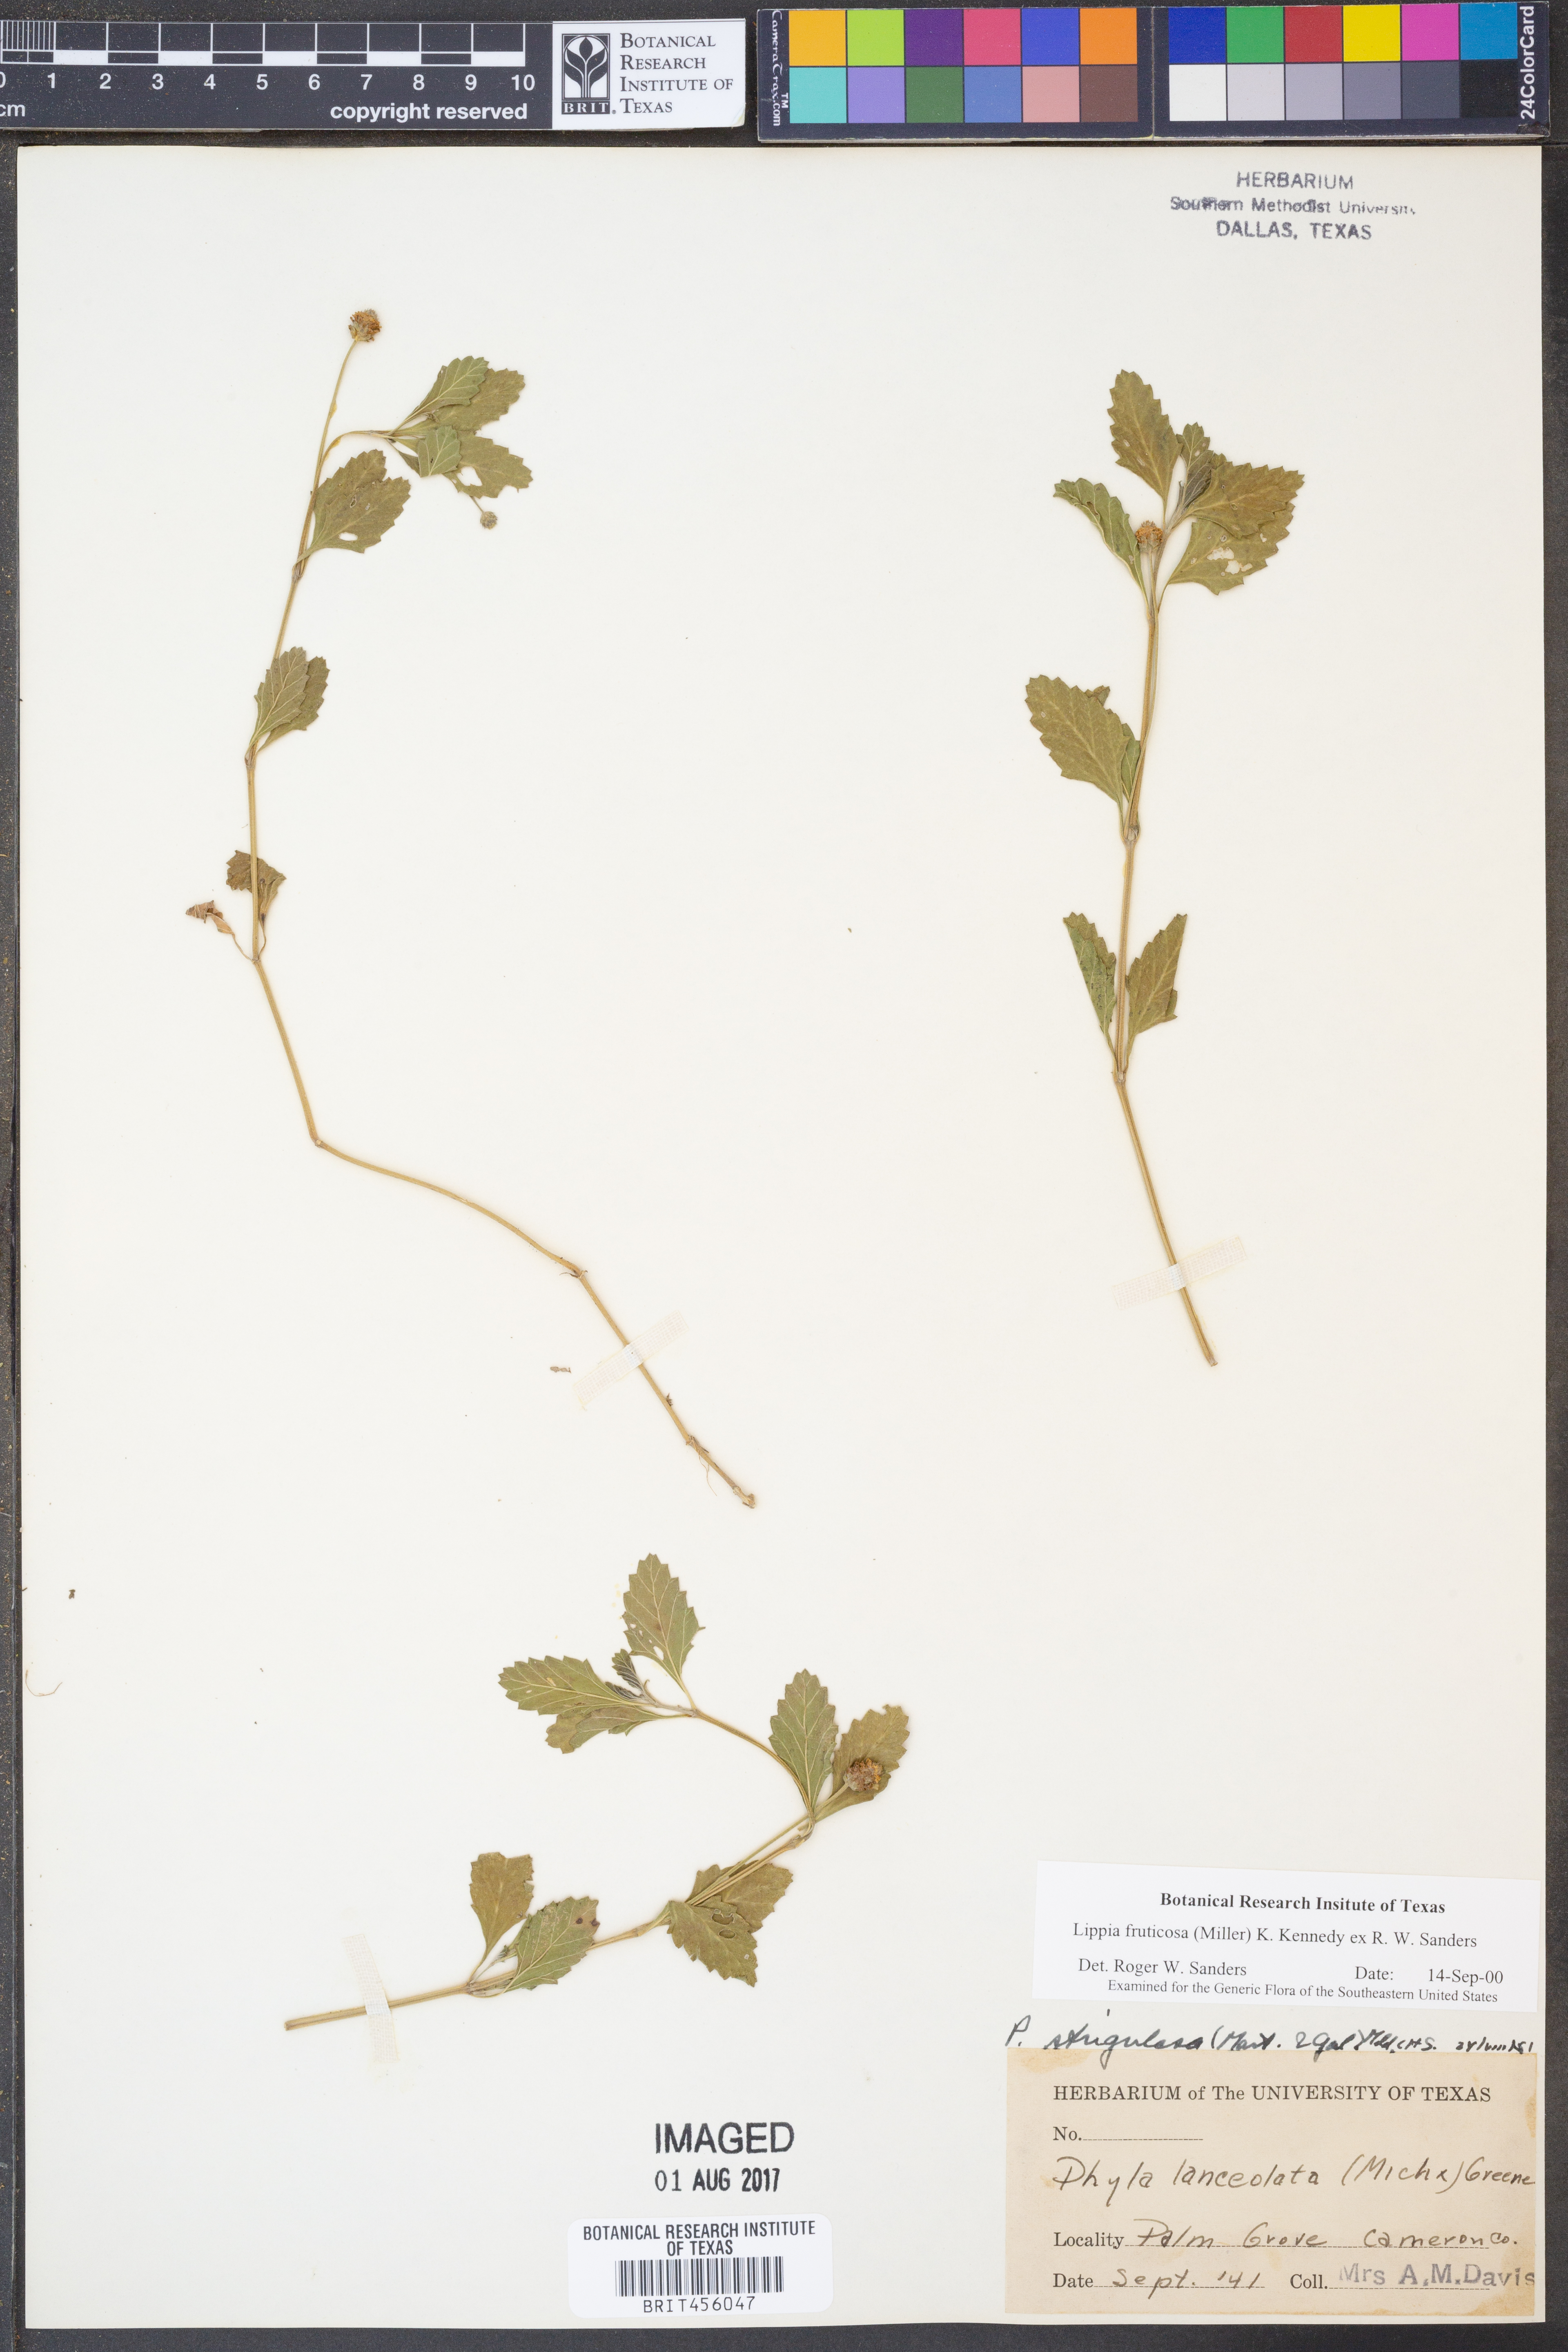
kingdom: Plantae
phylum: Tracheophyta
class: Magnoliopsida
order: Lamiales
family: Verbenaceae
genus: Phyla
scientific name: Phyla nodiflora
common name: Frogfruit
